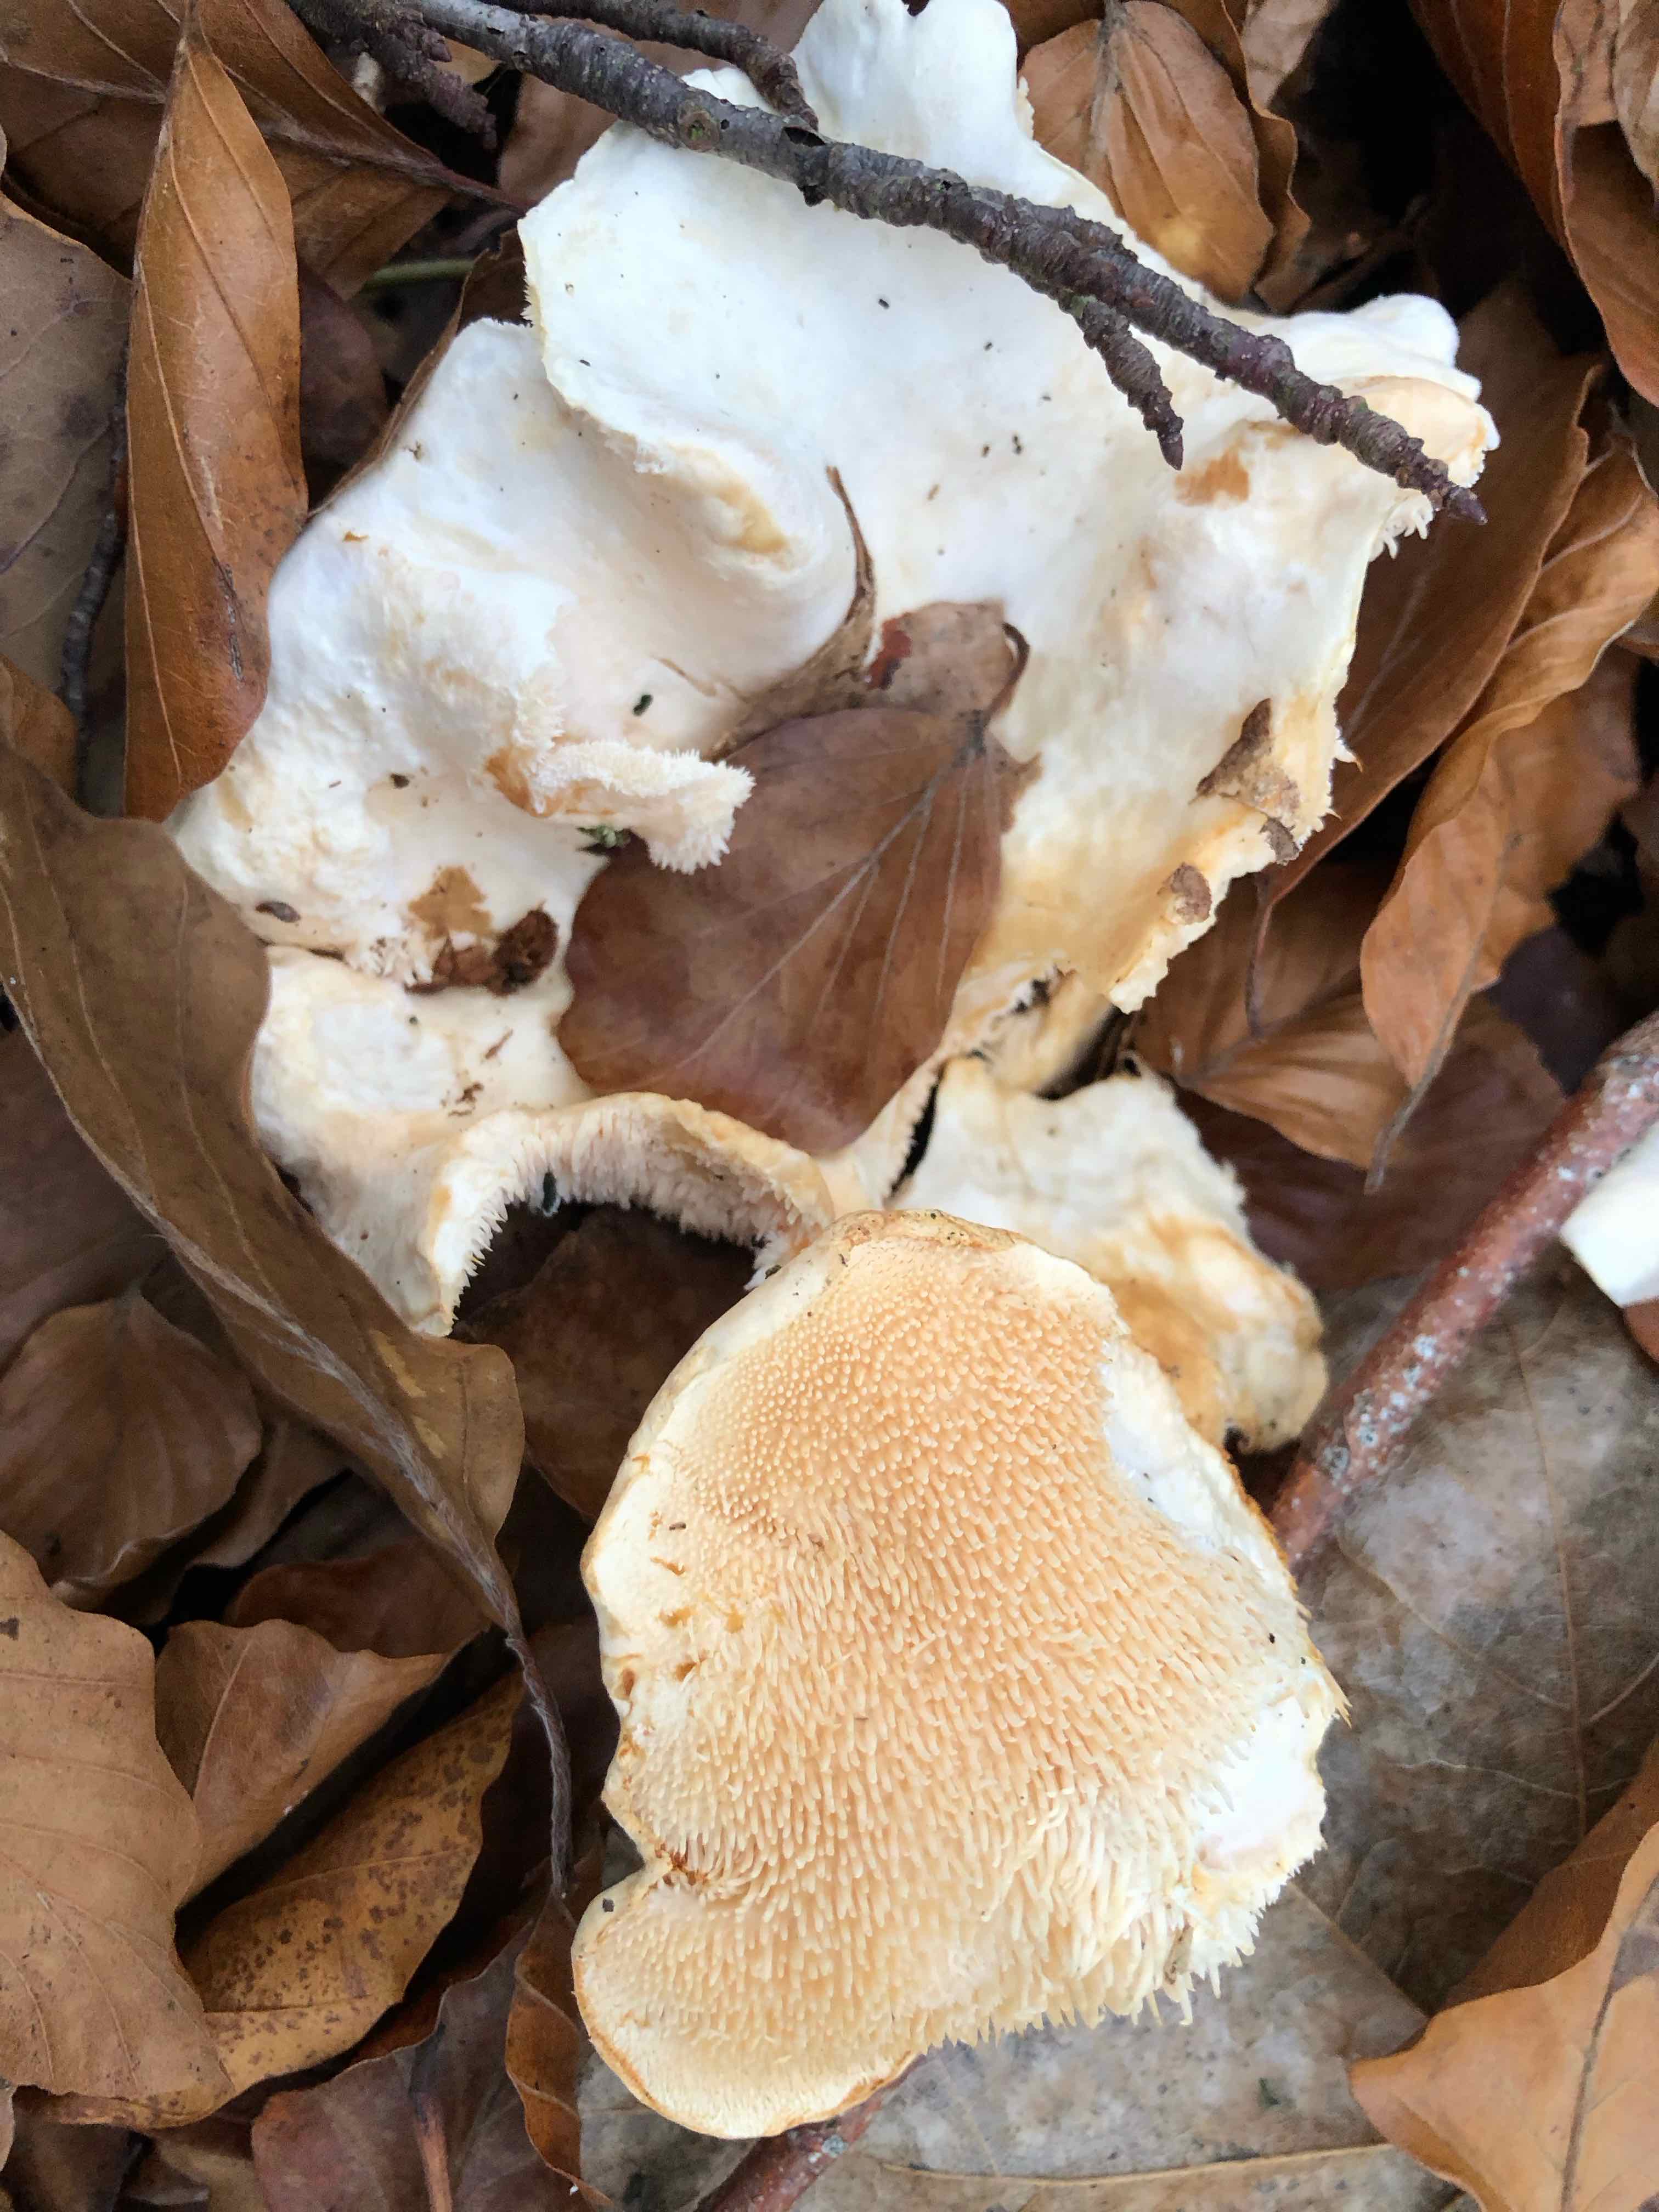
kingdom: Fungi
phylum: Basidiomycota
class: Agaricomycetes
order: Cantharellales
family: Hydnaceae
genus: Hydnum
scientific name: Hydnum repandum
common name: almindelig pigsvamp
